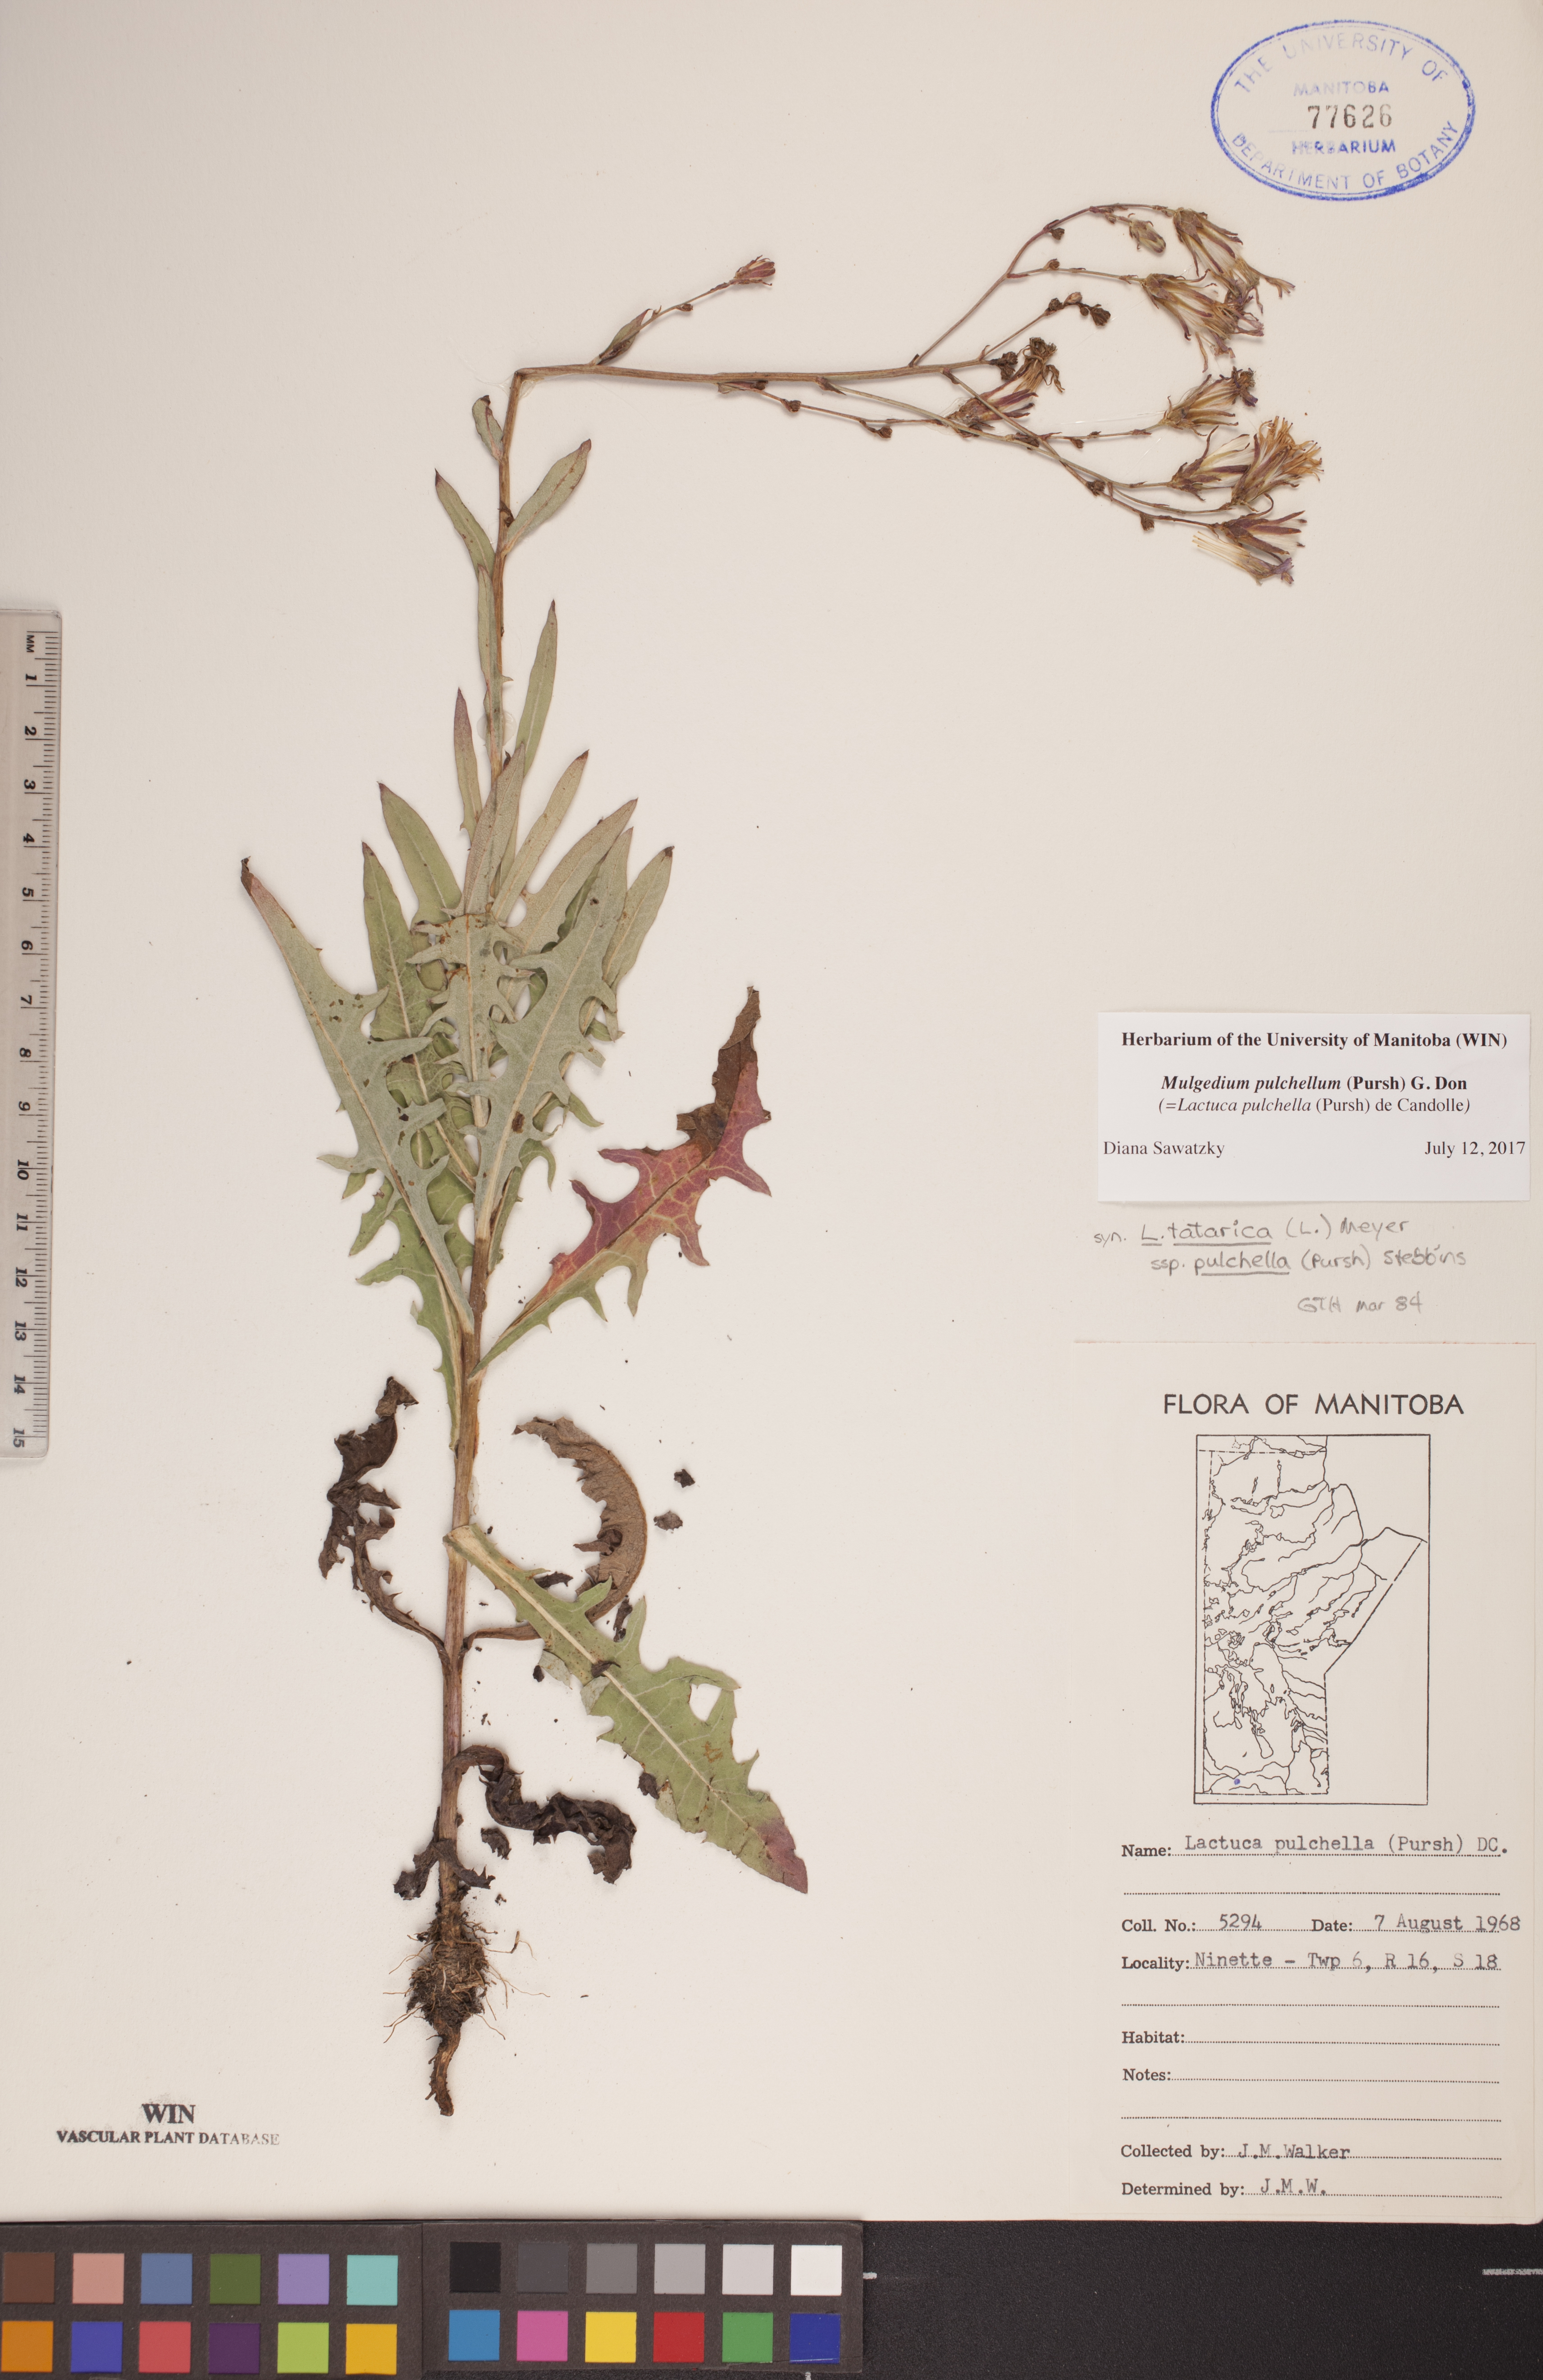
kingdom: Plantae
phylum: Tracheophyta
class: Magnoliopsida
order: Asterales
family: Asteraceae
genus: Lactuca
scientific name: Lactuca pulchella
